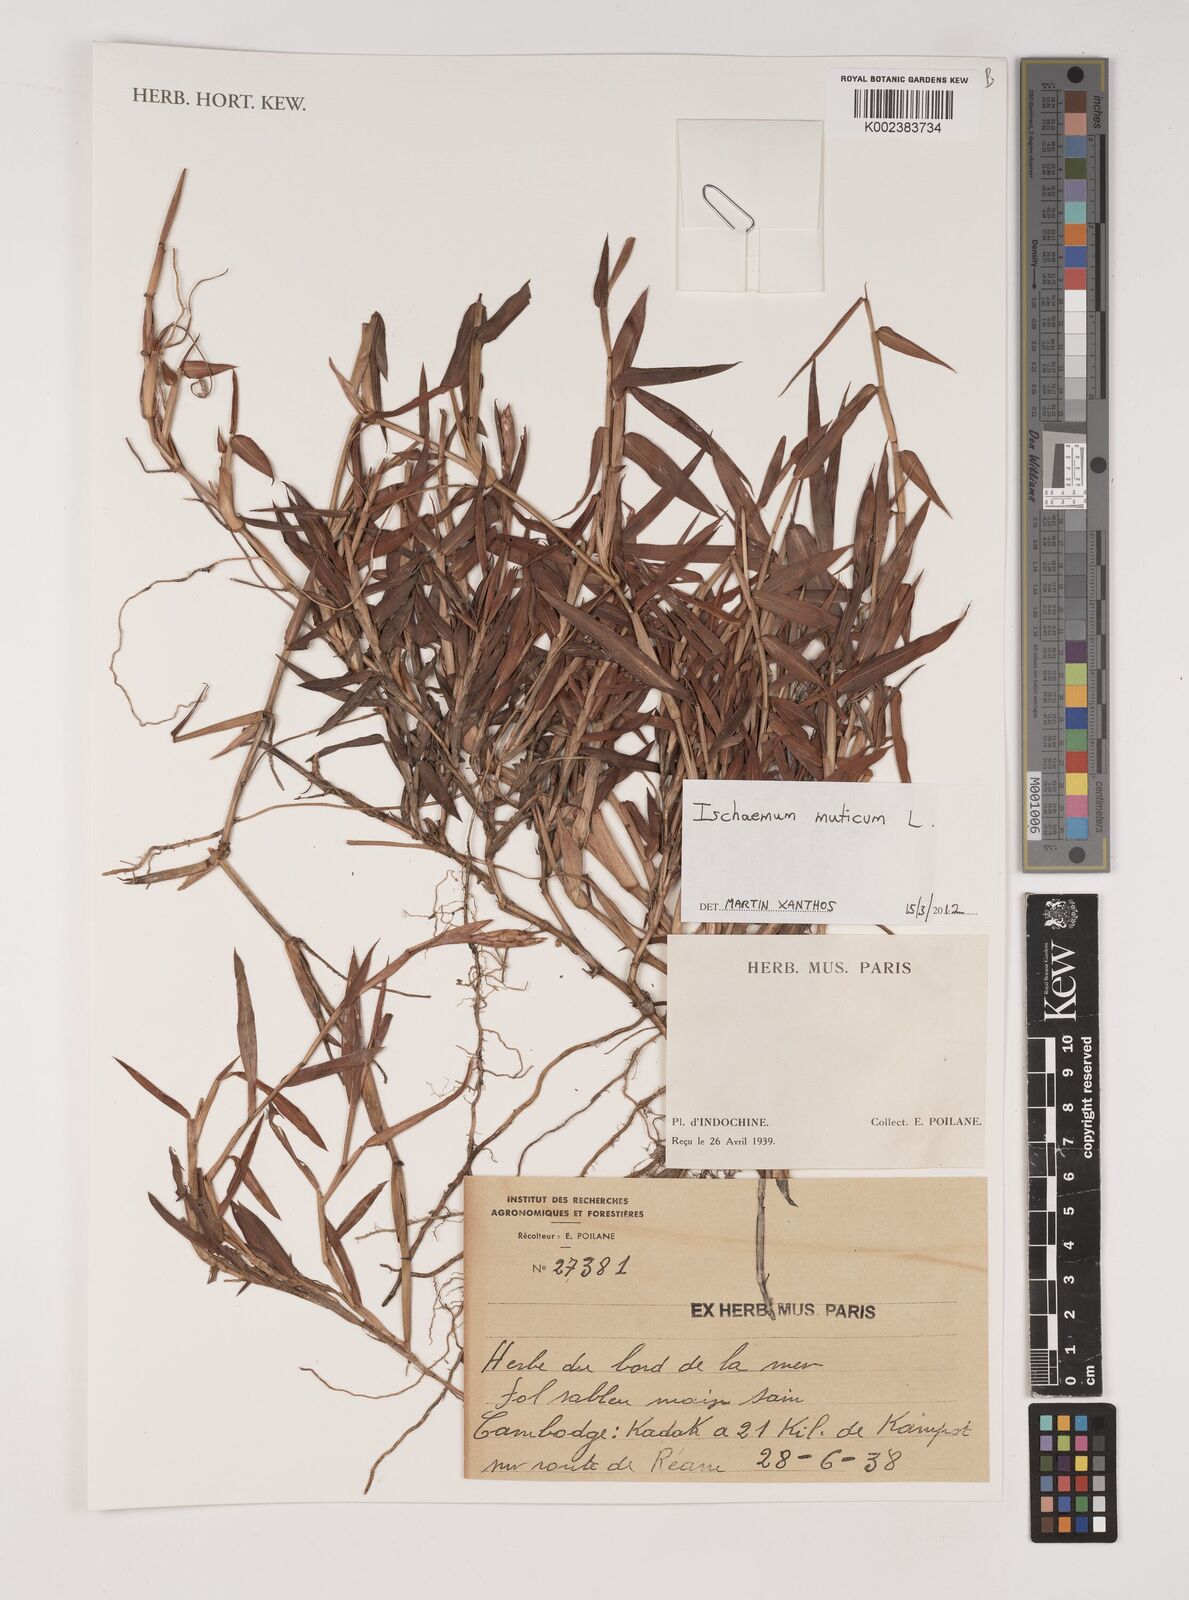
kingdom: Plantae
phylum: Tracheophyta
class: Liliopsida
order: Poales
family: Poaceae
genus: Ischaemum
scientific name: Ischaemum muticum
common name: Drought grass
